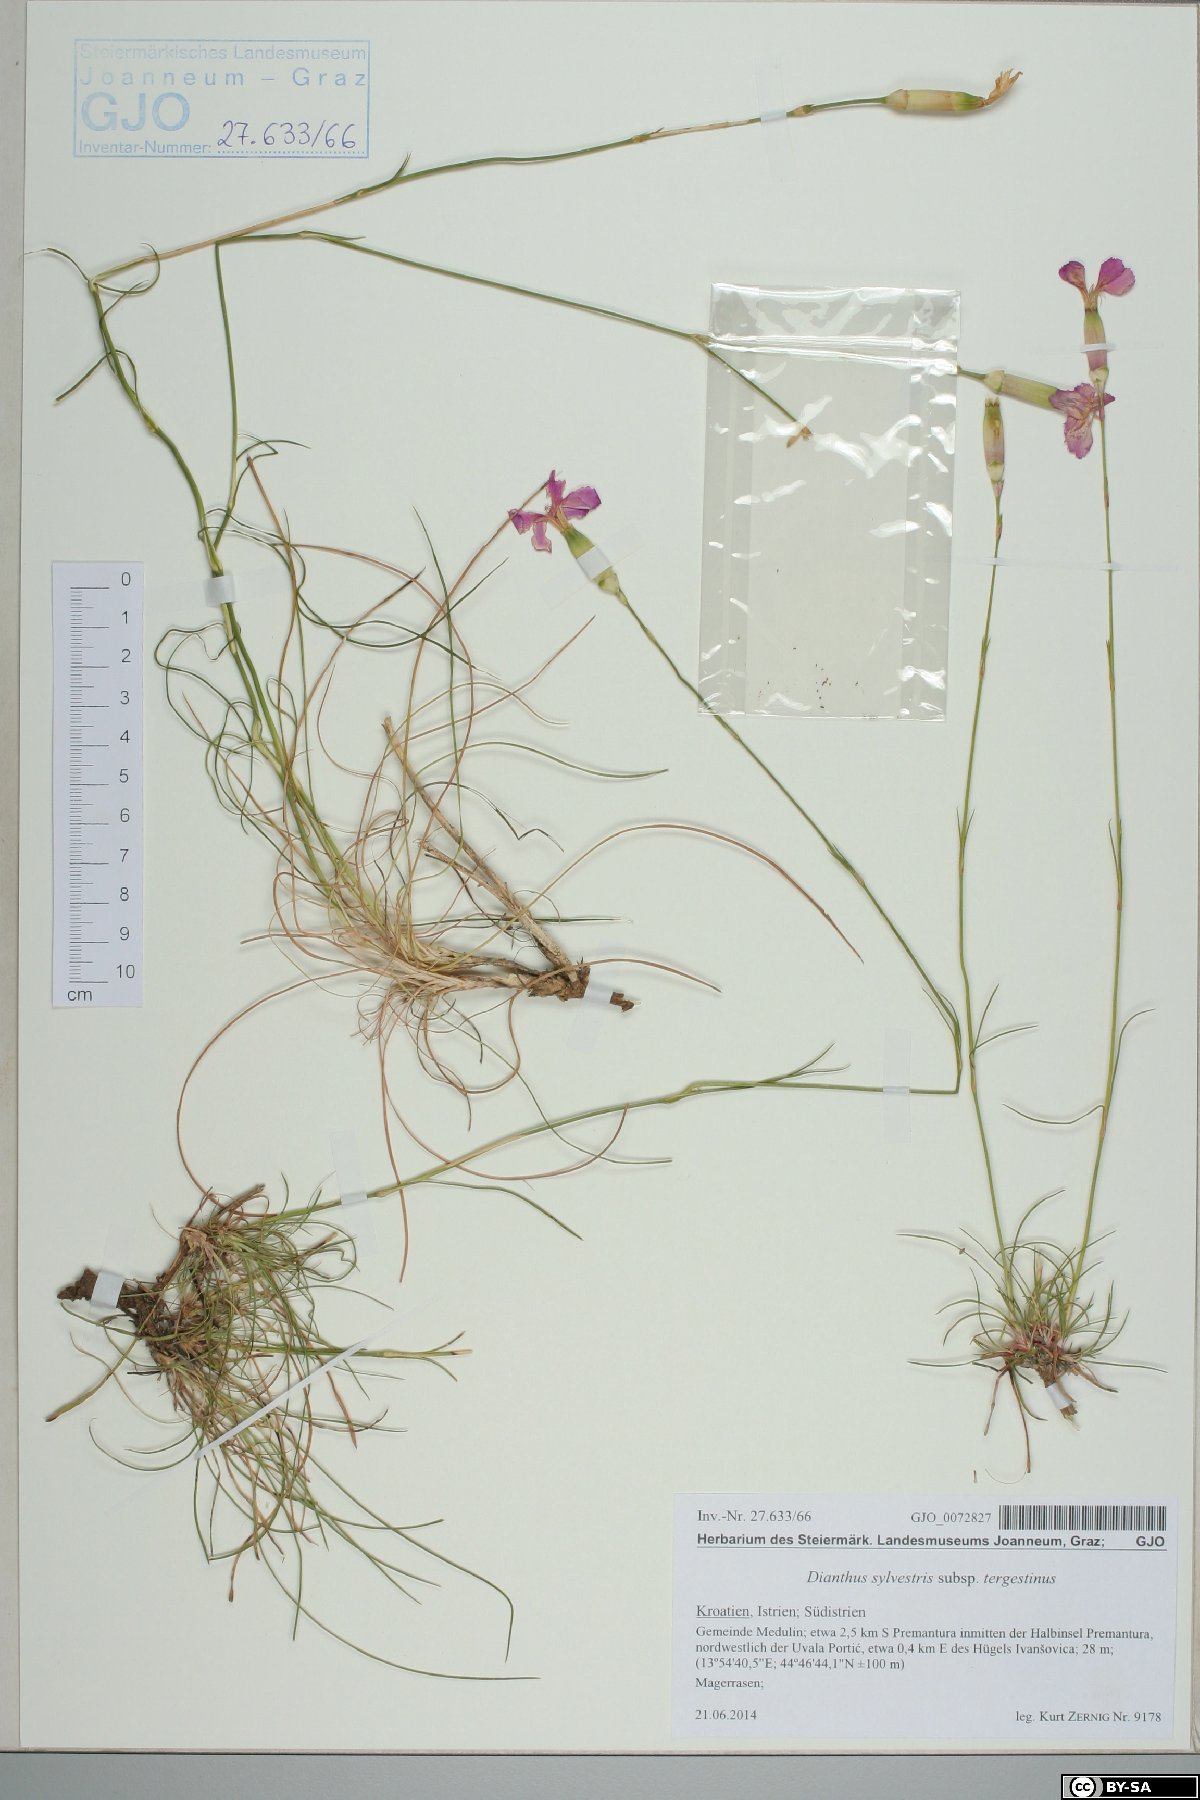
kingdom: Plantae
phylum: Tracheophyta
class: Magnoliopsida
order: Caryophyllales
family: Caryophyllaceae
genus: Dianthus
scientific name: Dianthus sylvestris
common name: Wood pink
